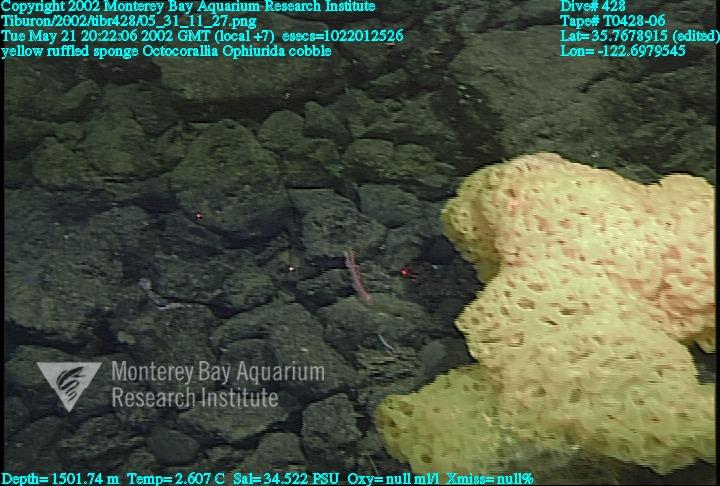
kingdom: Animalia
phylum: Porifera
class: Hexactinellida
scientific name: Hexactinellida
